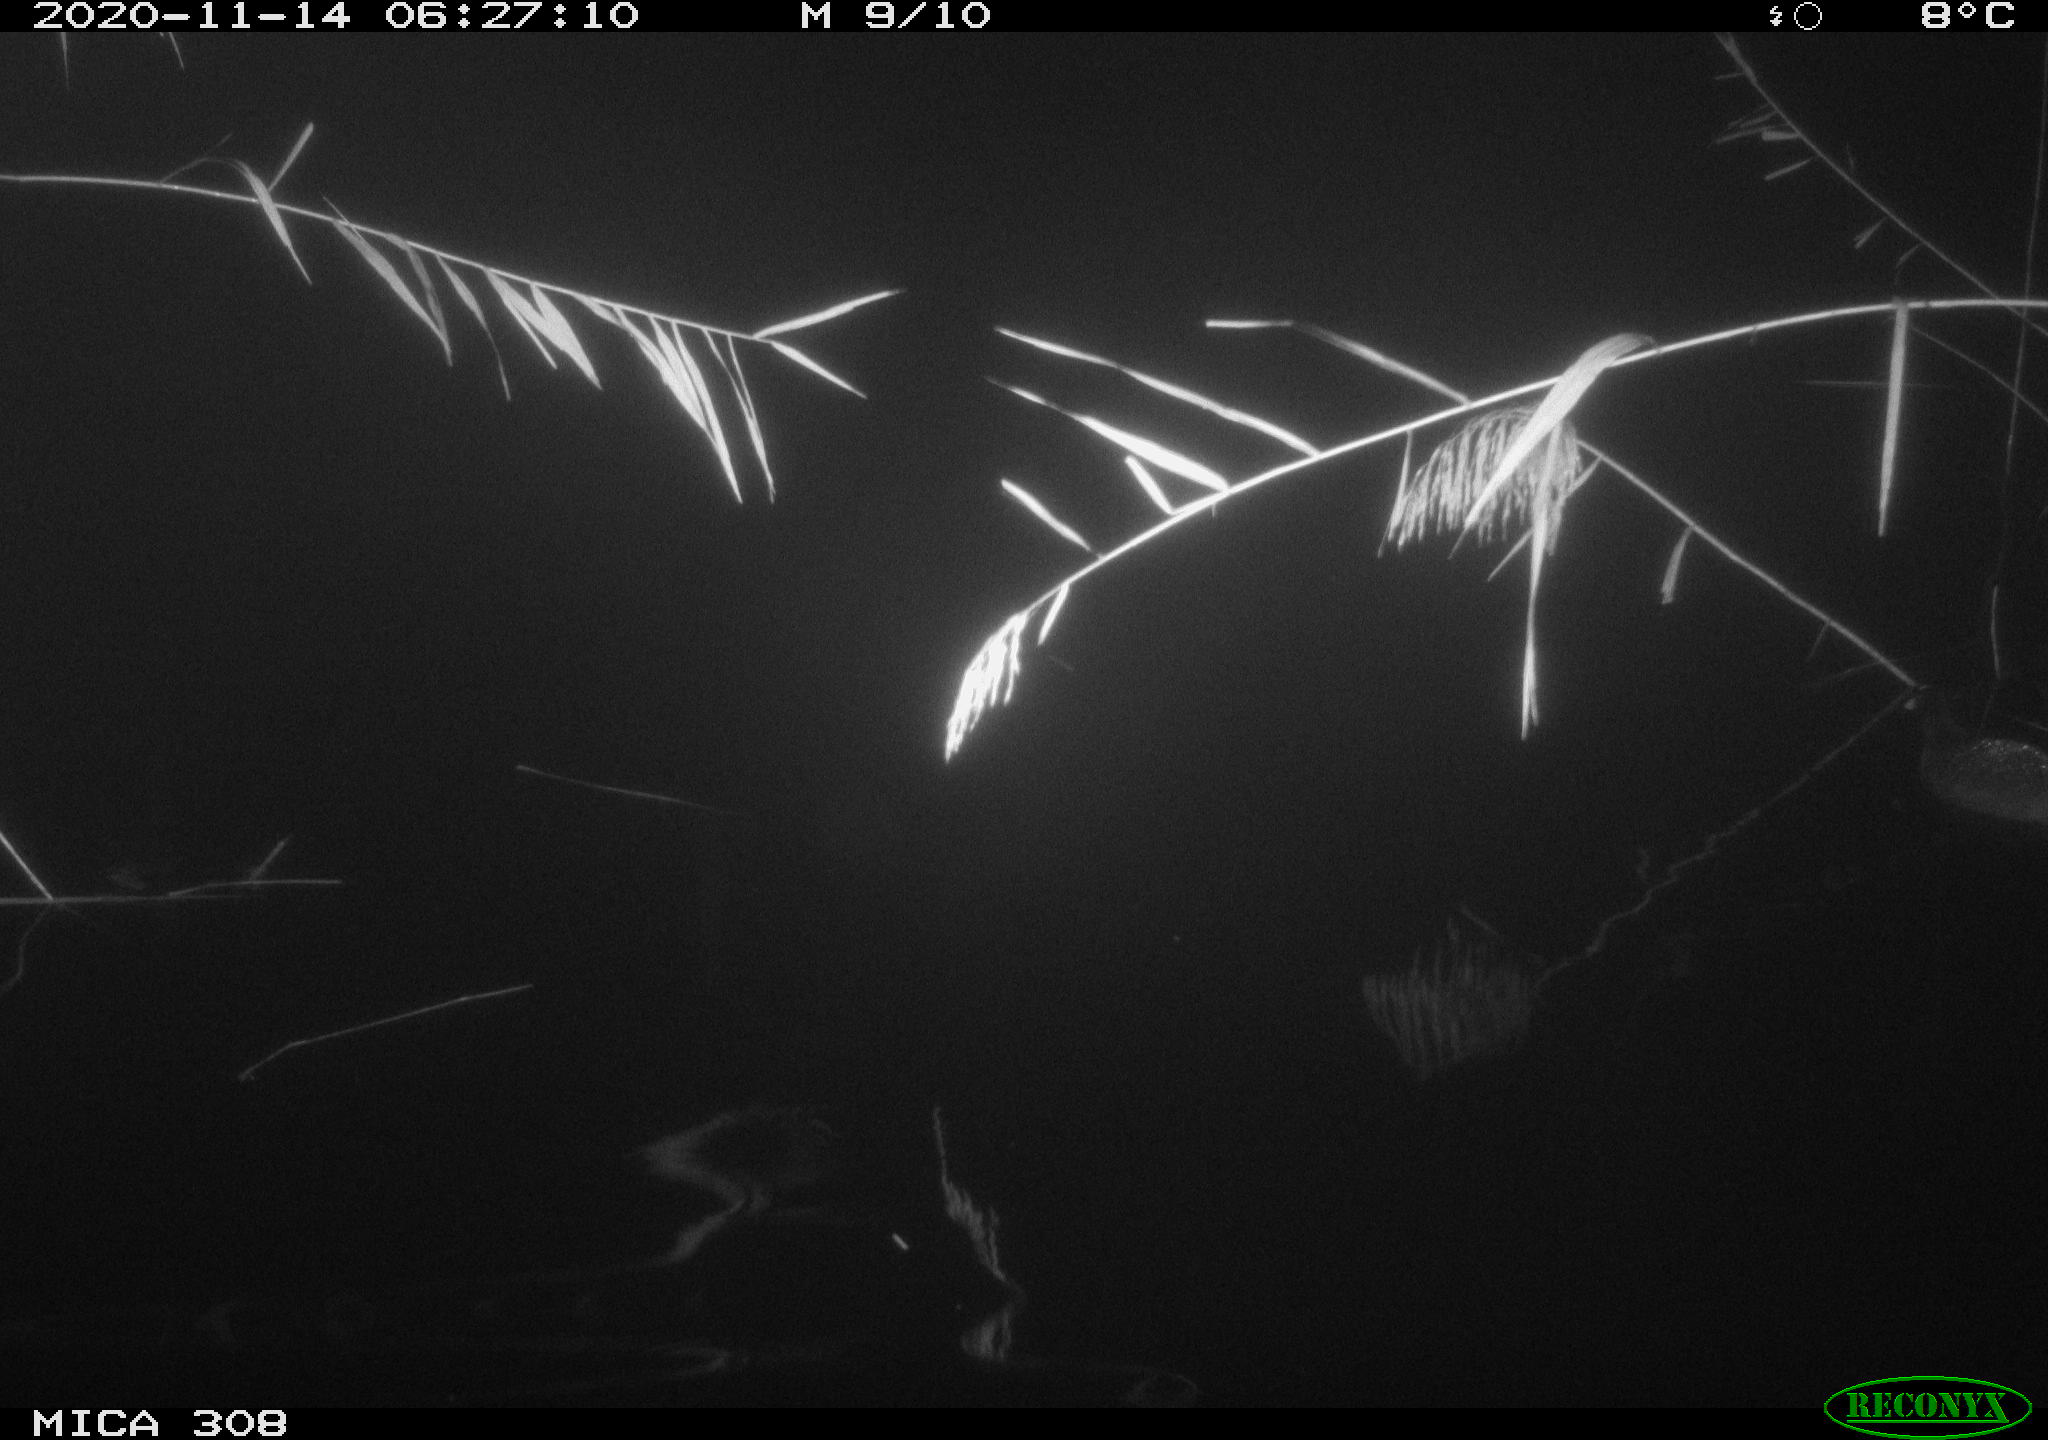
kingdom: Animalia
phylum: Chordata
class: Aves
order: Gruiformes
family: Rallidae
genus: Fulica
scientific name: Fulica atra
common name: Eurasian coot
